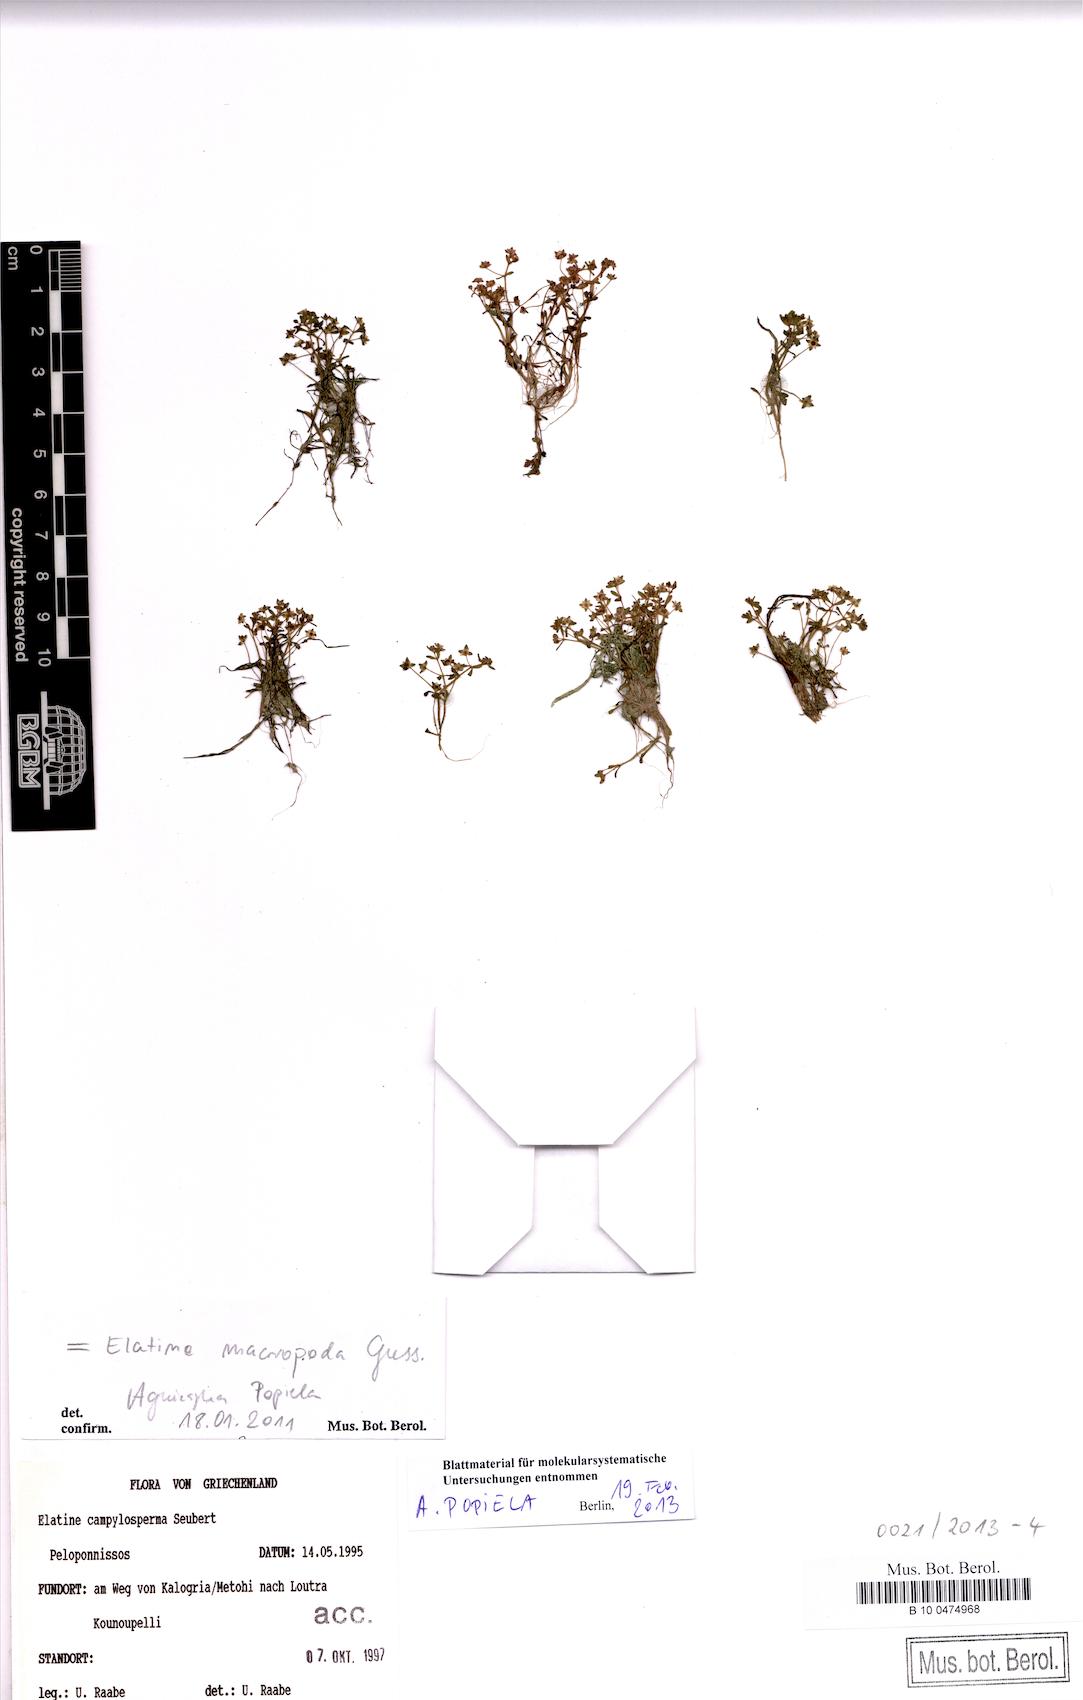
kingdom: Plantae
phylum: Tracheophyta
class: Magnoliopsida
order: Malpighiales
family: Elatinaceae
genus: Elatine
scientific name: Elatine macropoda
